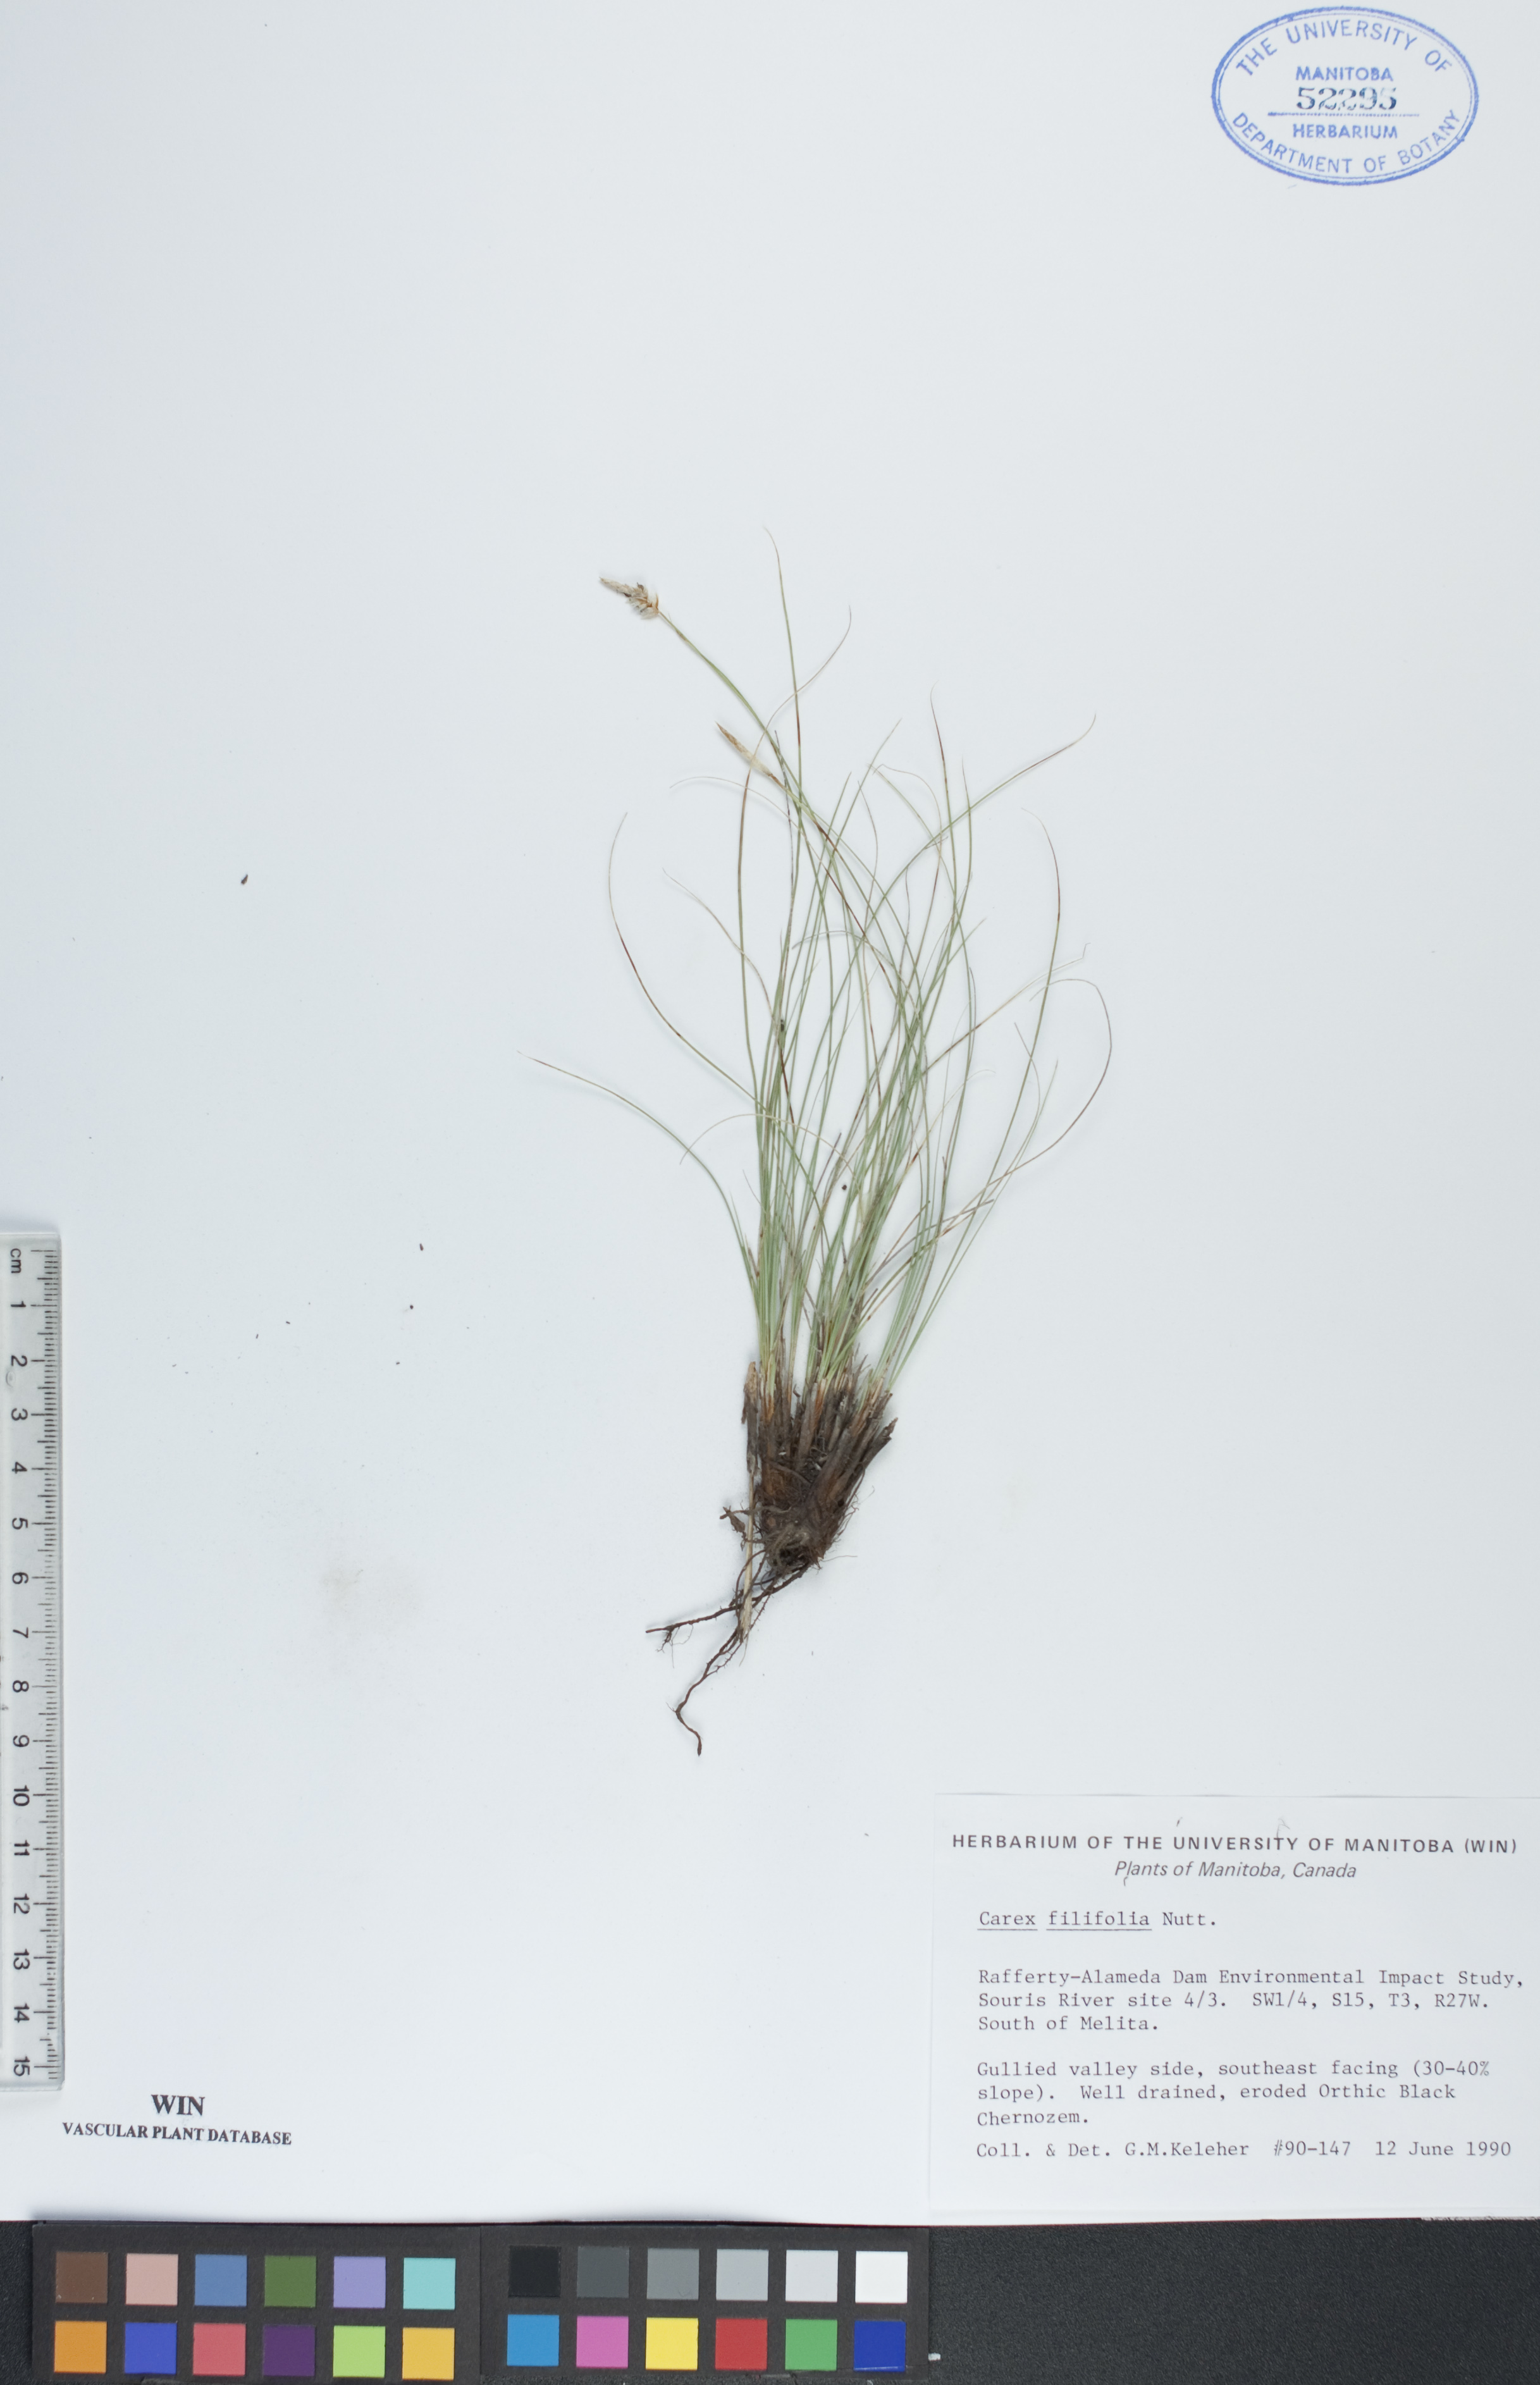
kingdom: Plantae
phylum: Tracheophyta
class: Liliopsida
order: Poales
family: Cyperaceae
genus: Carex
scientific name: Carex filifolia
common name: Threadleaf sedge
